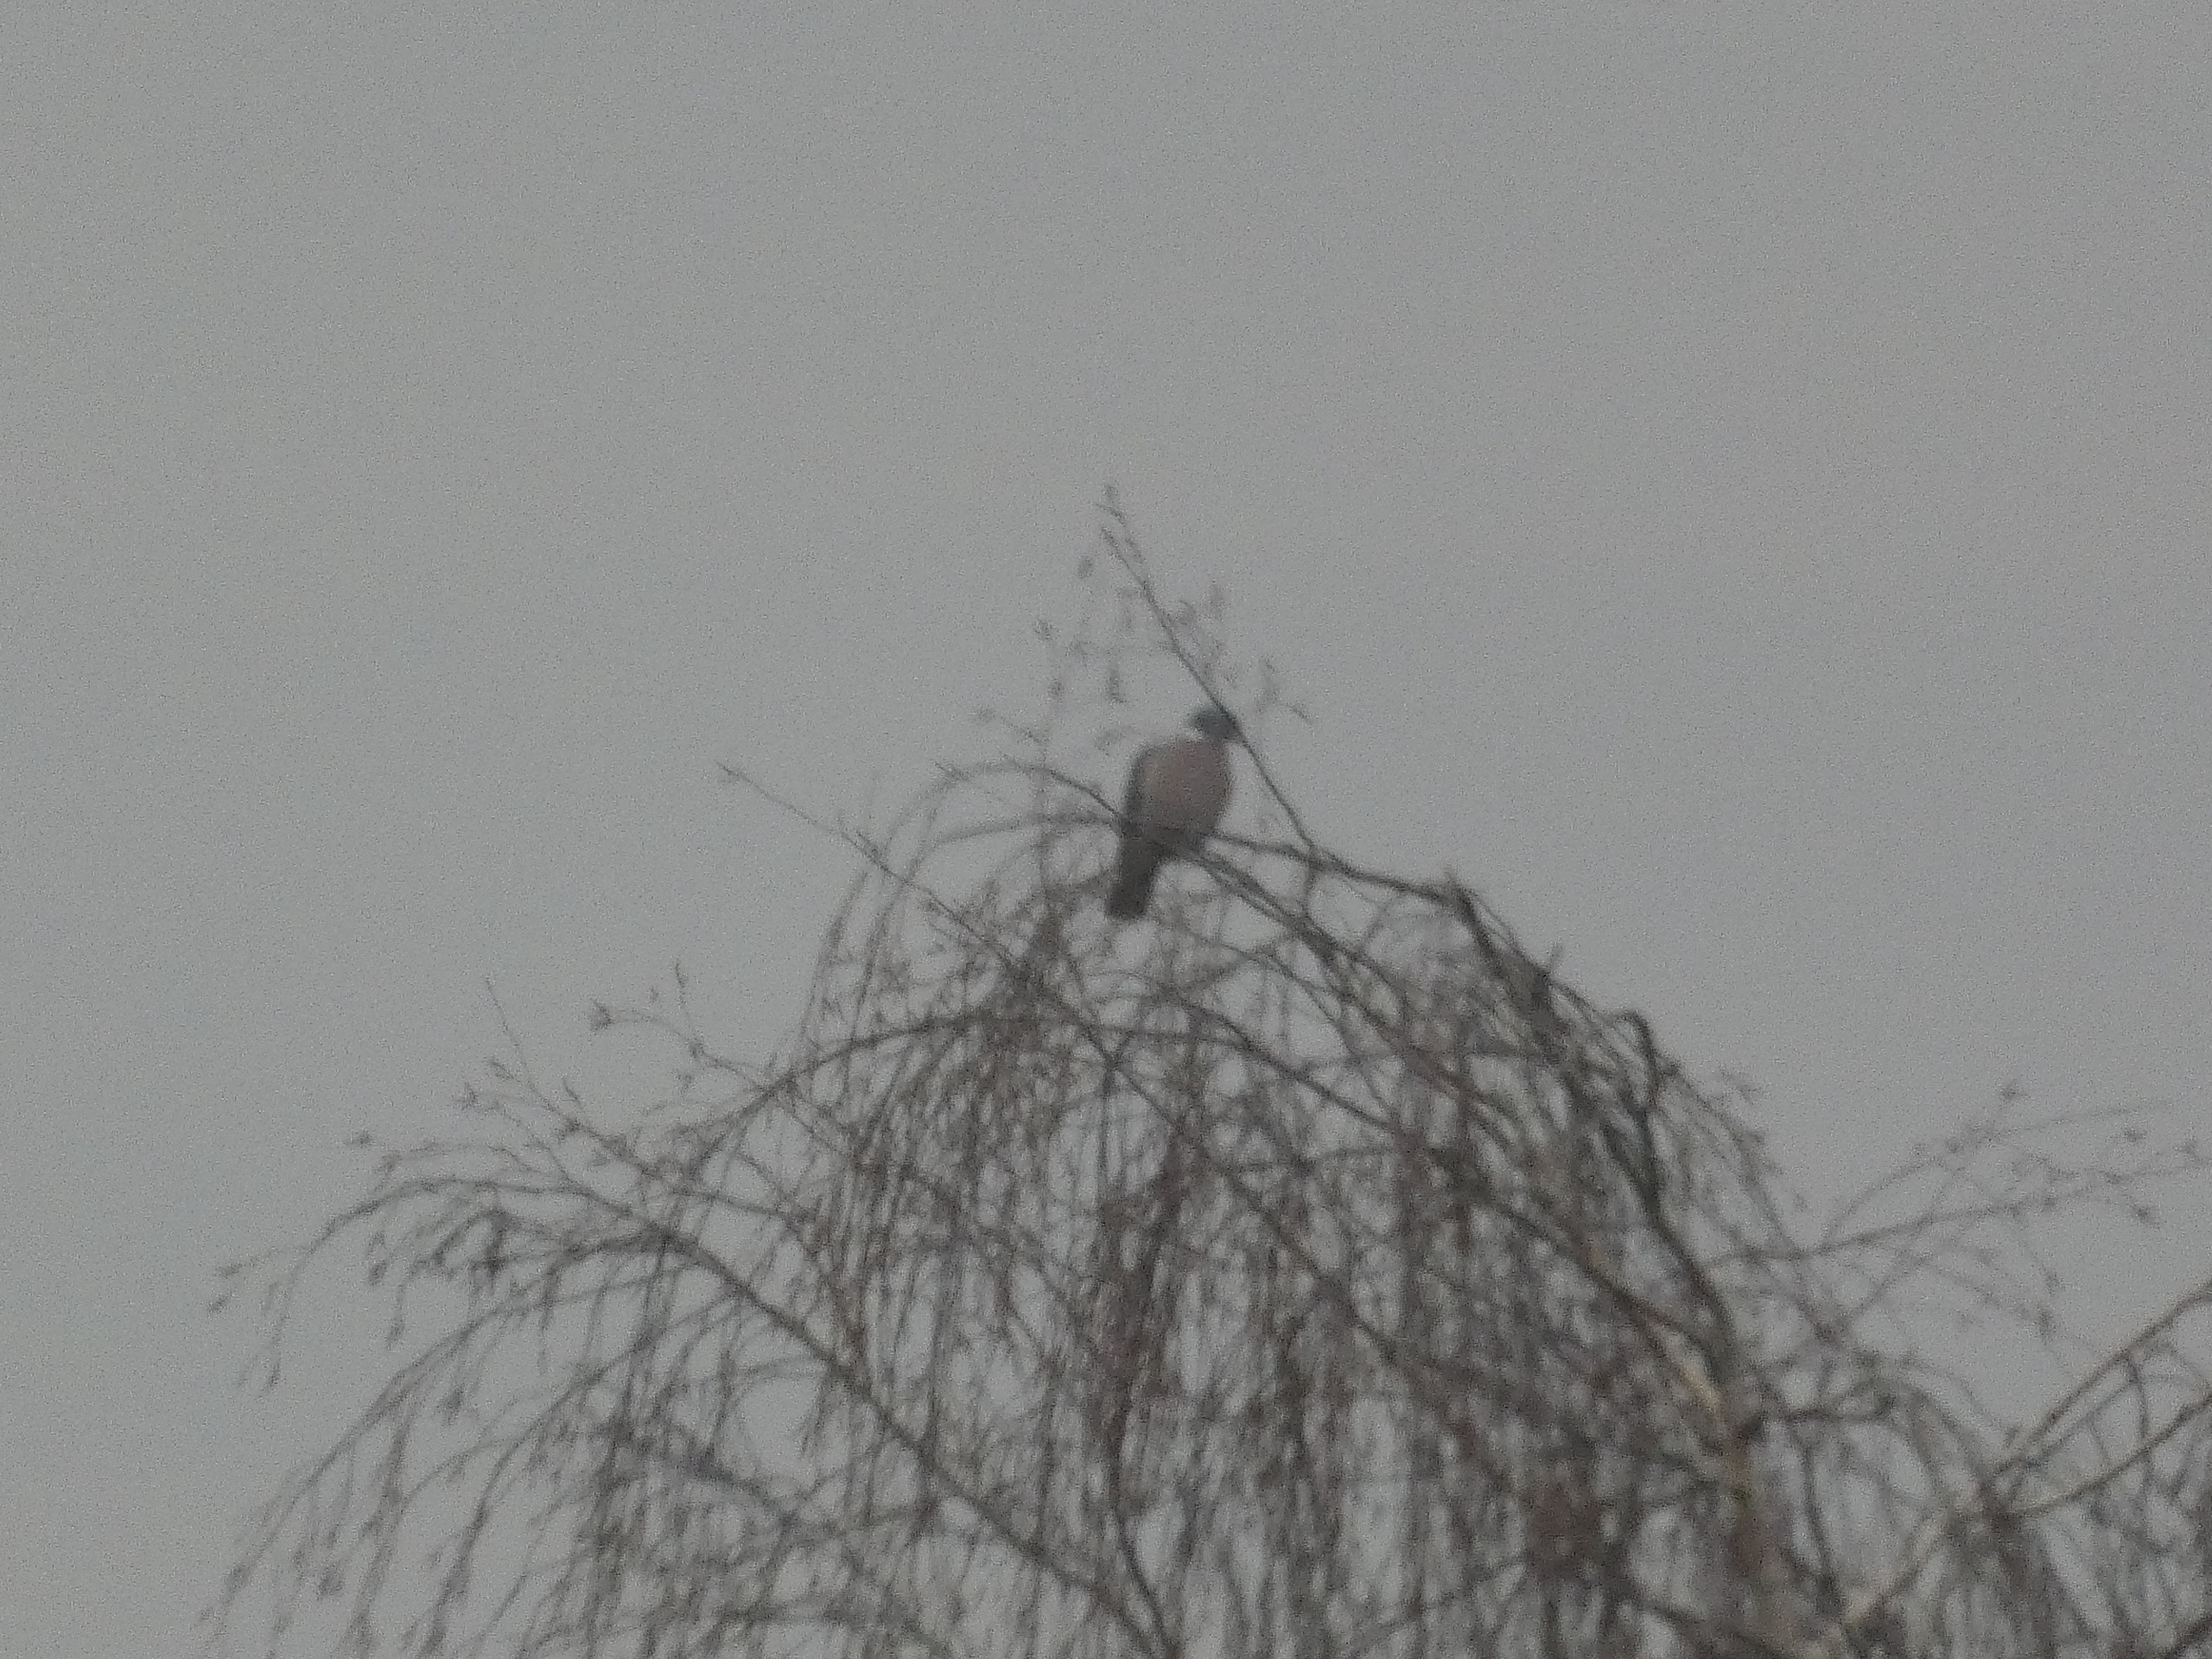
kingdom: Animalia
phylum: Chordata
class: Aves
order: Columbiformes
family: Columbidae
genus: Columba
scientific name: Columba palumbus
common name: Ringdue
